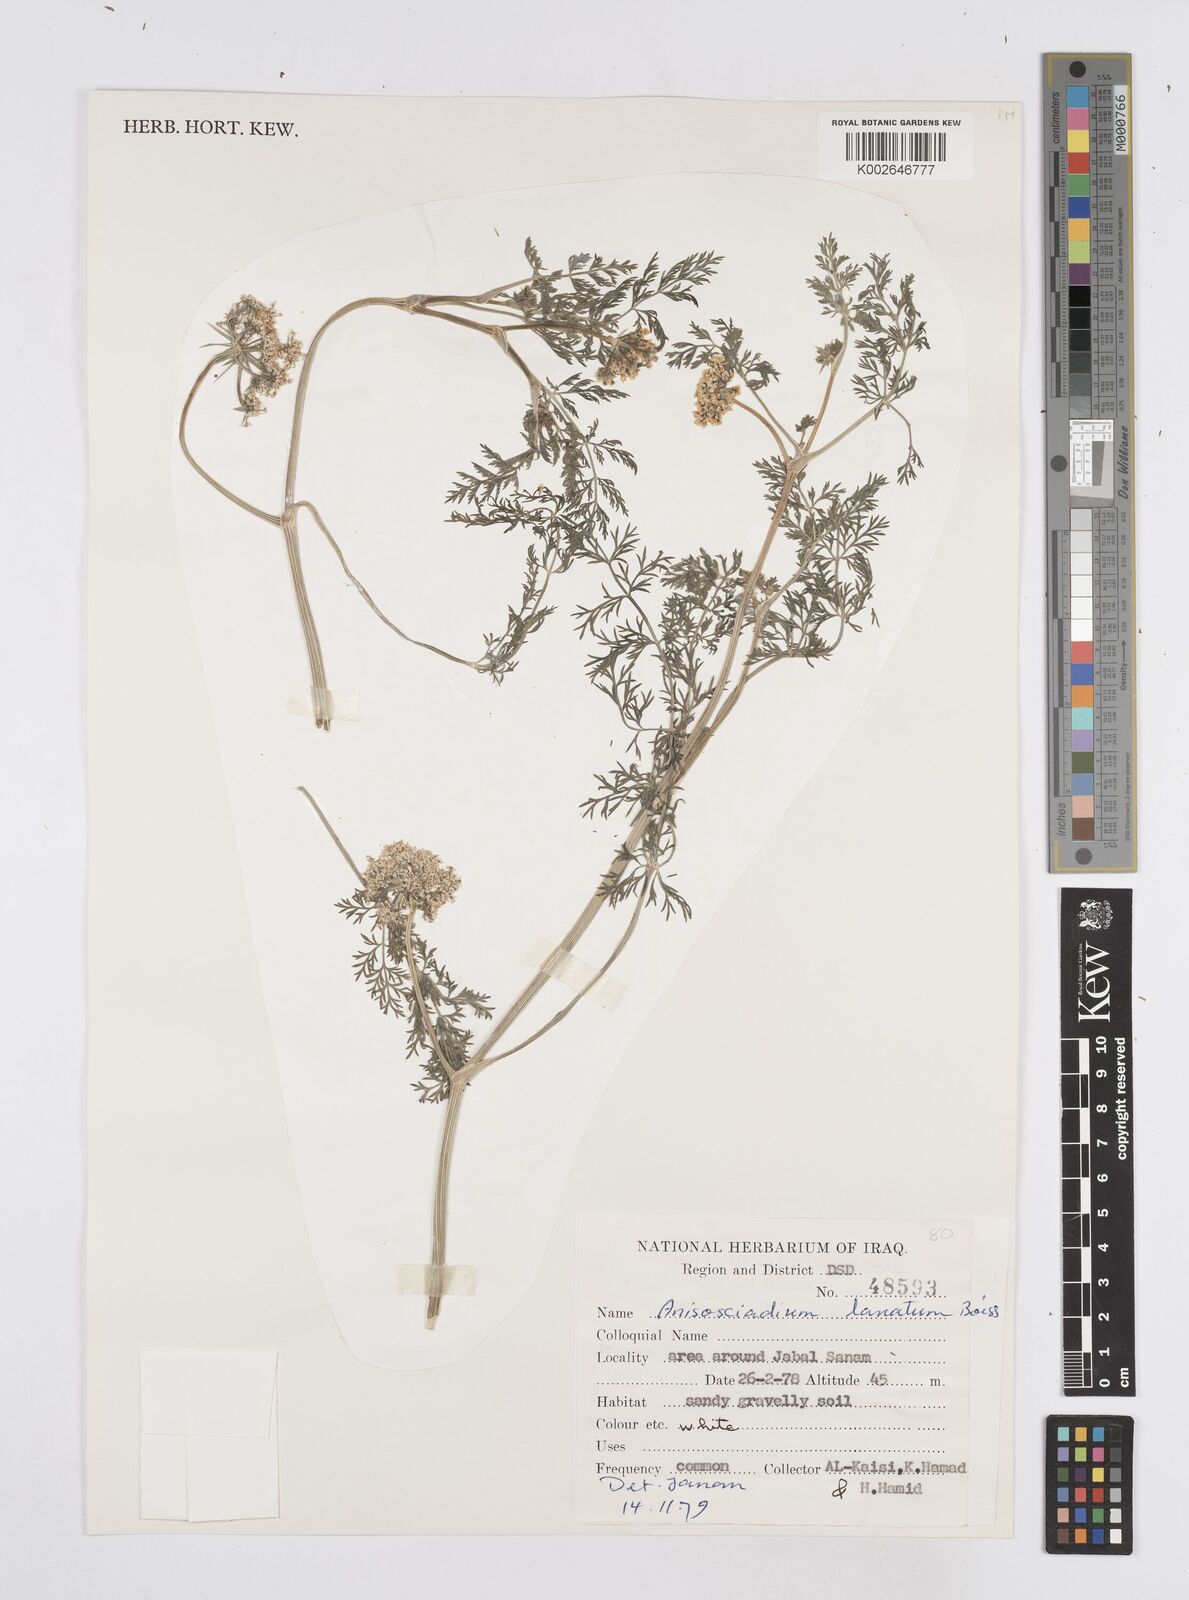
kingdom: Plantae
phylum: Tracheophyta
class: Magnoliopsida
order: Apiales
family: Apiaceae
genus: Anisosciadium
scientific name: Anisosciadium lanatum
